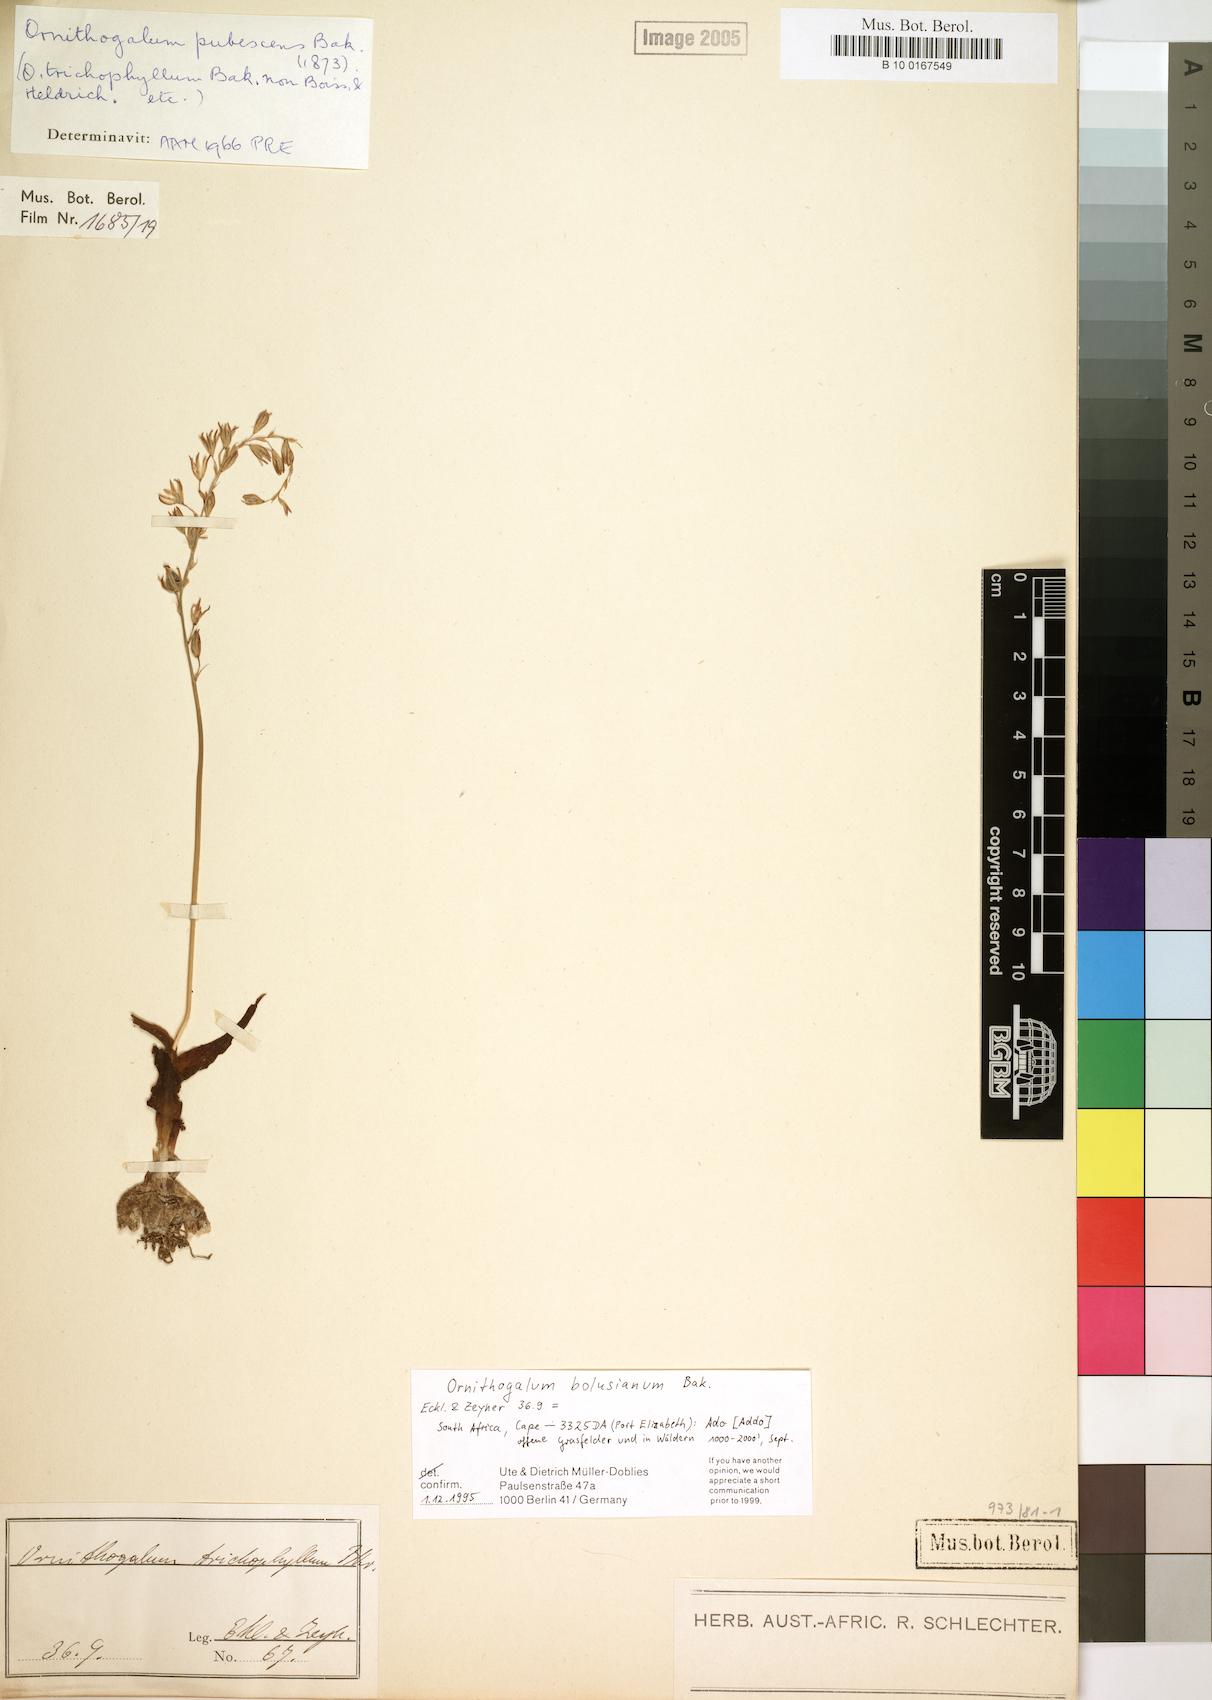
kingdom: Plantae
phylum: Tracheophyta
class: Liliopsida
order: Asparagales
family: Asparagaceae
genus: Ornithogalum
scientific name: Ornithogalum graminifolium
